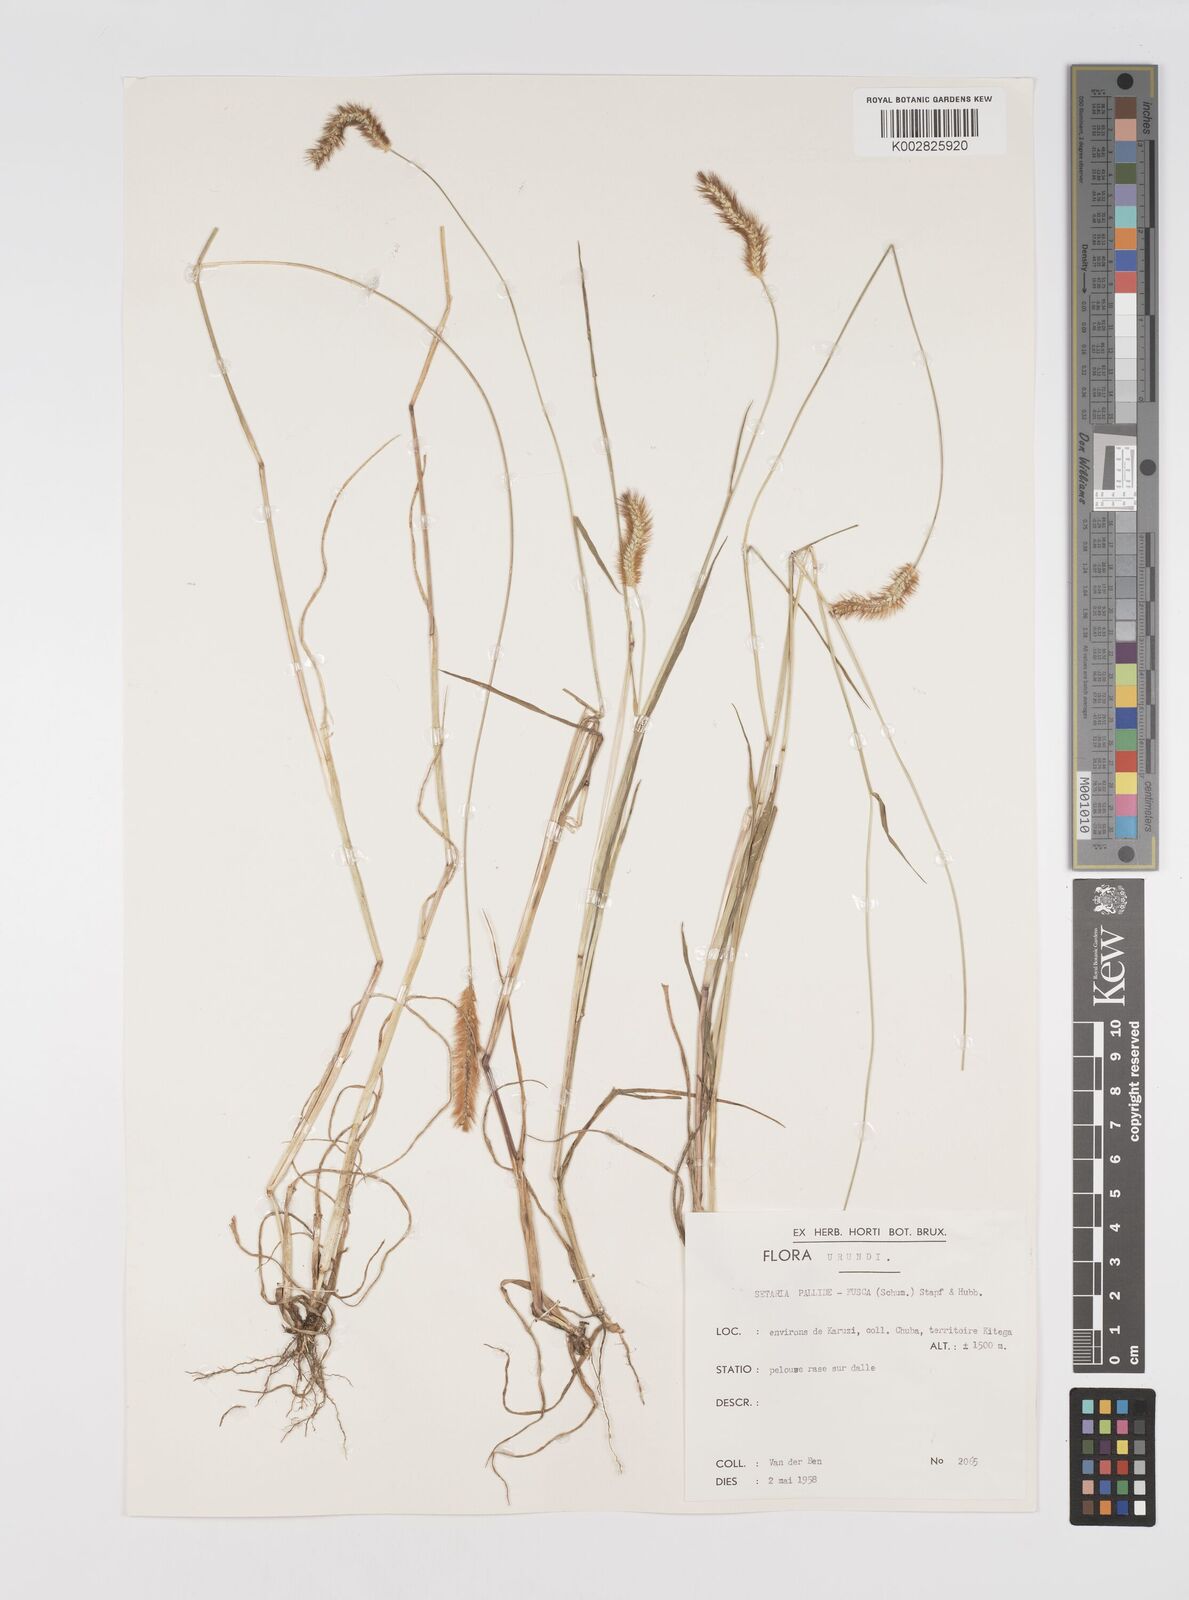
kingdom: Plantae
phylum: Tracheophyta
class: Liliopsida
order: Poales
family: Poaceae
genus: Setaria
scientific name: Setaria pumila
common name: Yellow bristle-grass
